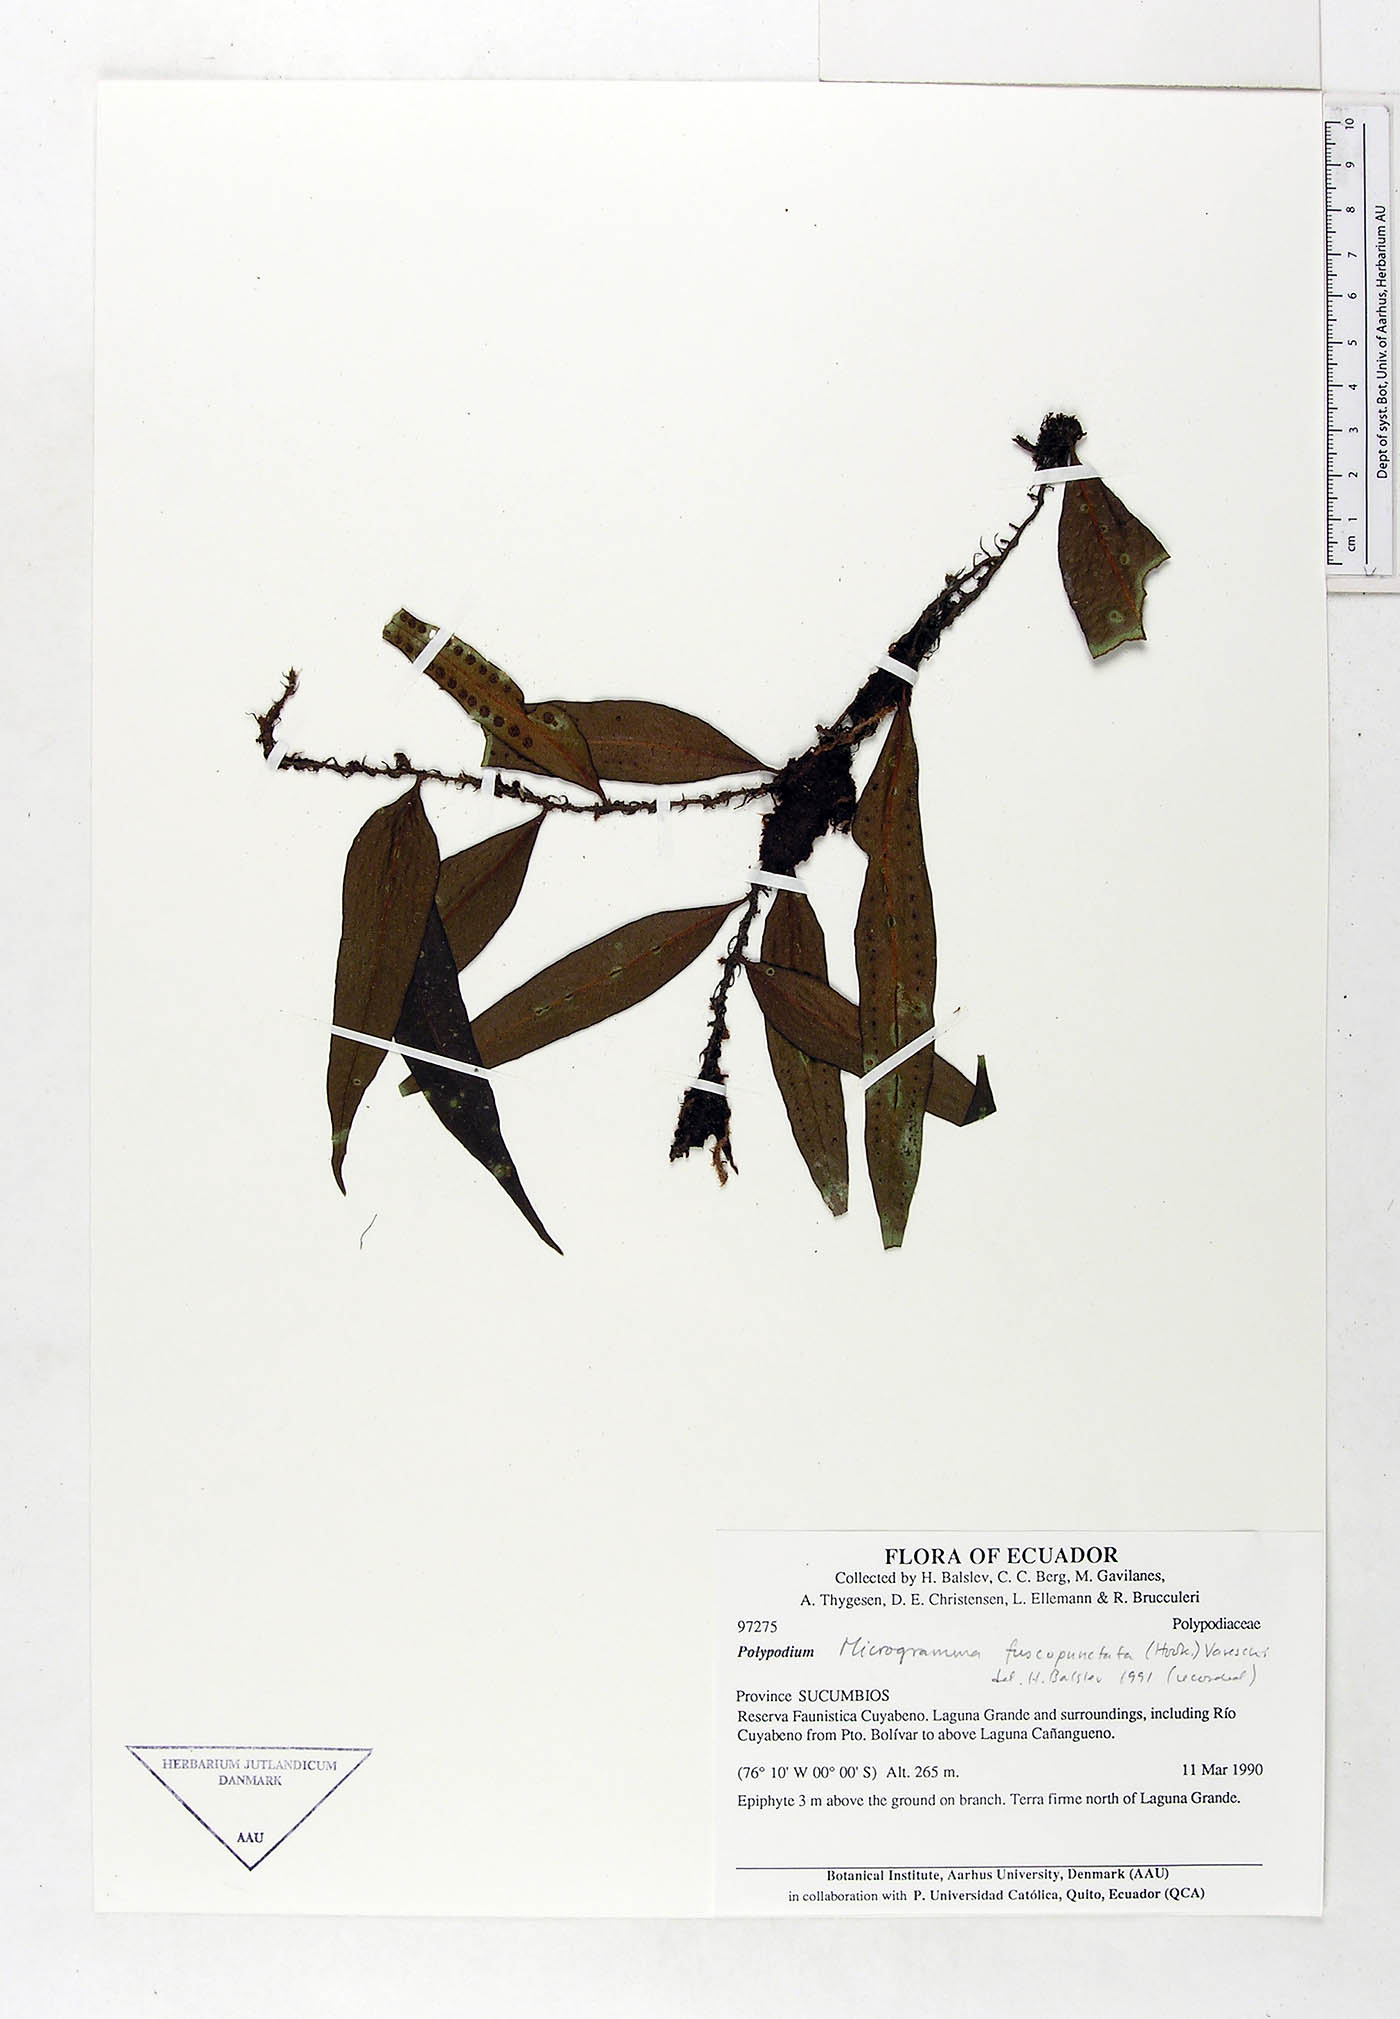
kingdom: Plantae
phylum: Tracheophyta
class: Polypodiopsida
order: Polypodiales
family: Polypodiaceae
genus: Microgramma
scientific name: Microgramma dictyophylla
